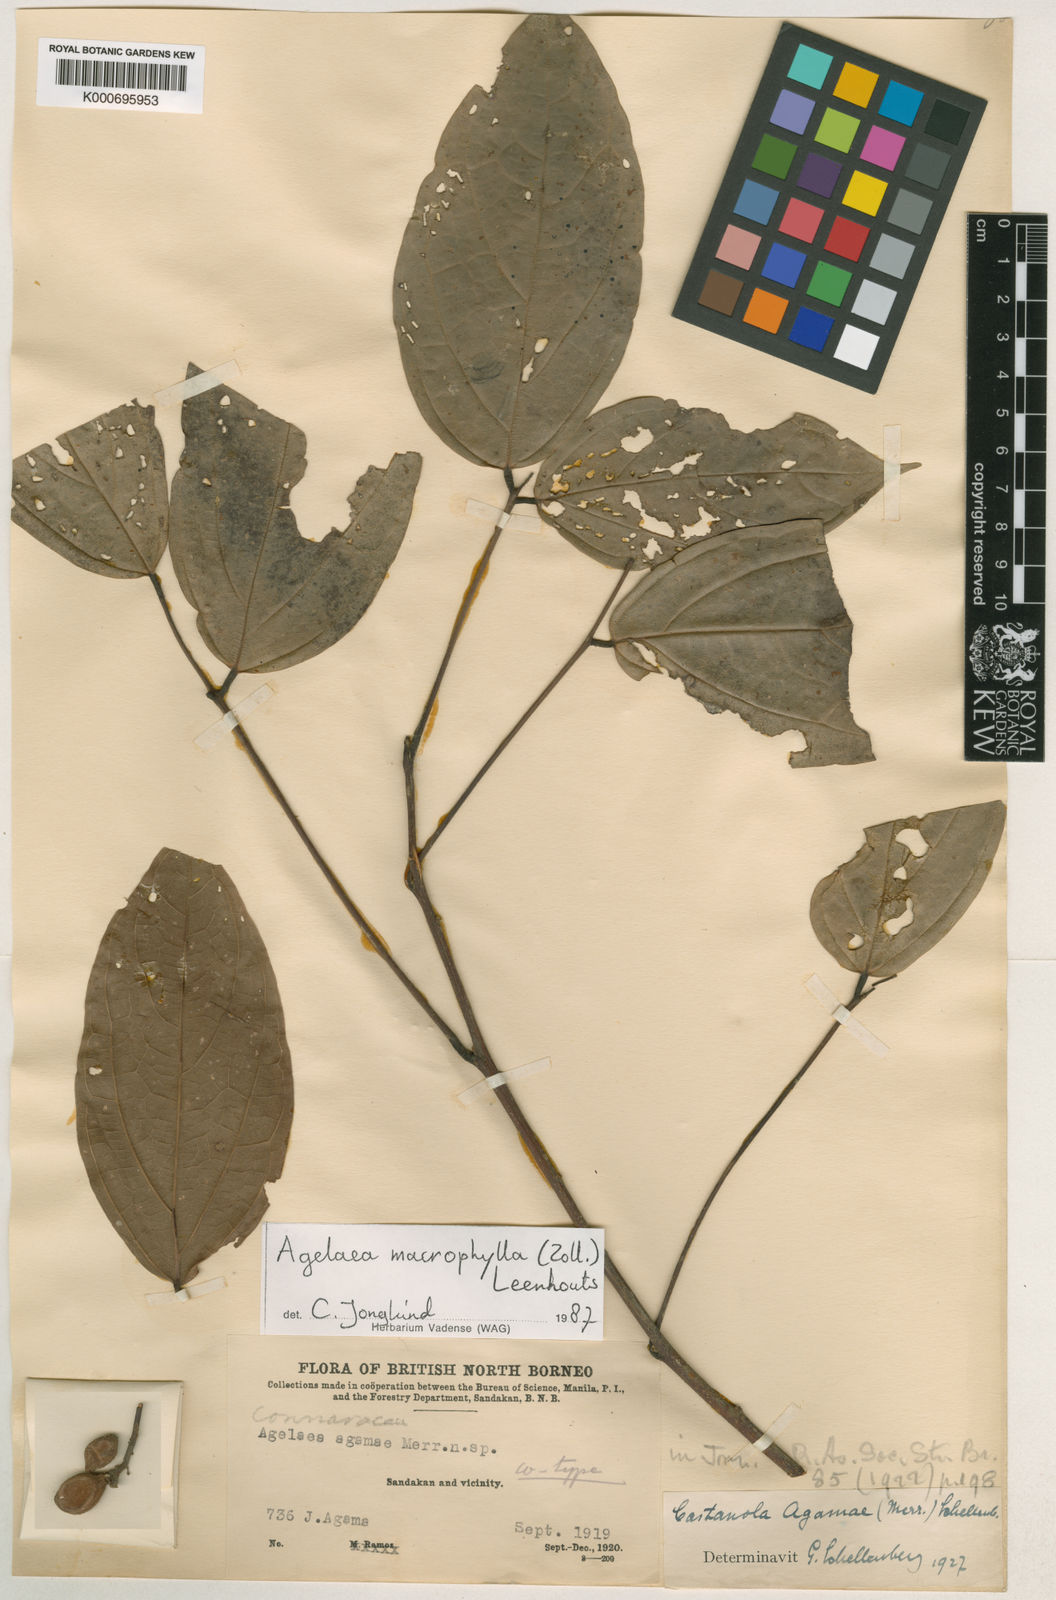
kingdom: Plantae
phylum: Tracheophyta
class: Magnoliopsida
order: Oxalidales
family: Connaraceae
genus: Agelaea
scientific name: Agelaea trinervis
